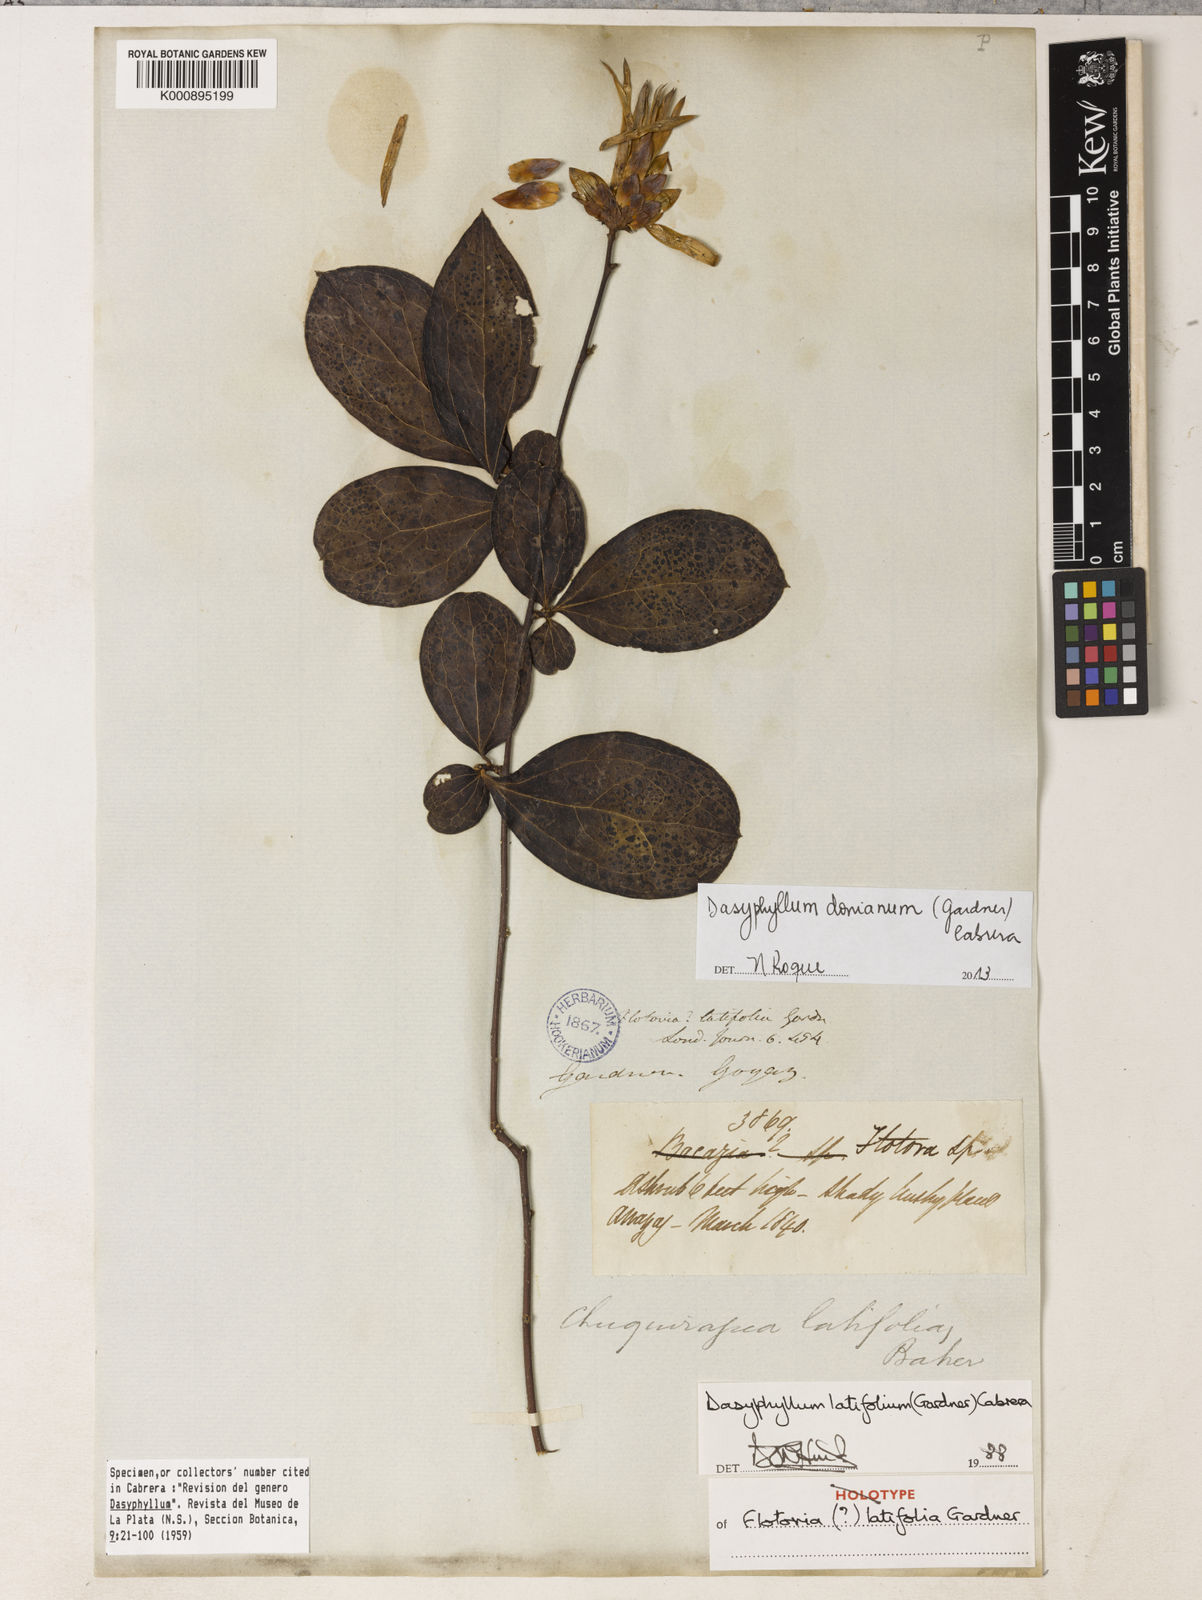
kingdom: Plantae
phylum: Tracheophyta
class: Magnoliopsida
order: Asterales
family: Asteraceae
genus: Dasyphyllum
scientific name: Dasyphyllum latifolium
